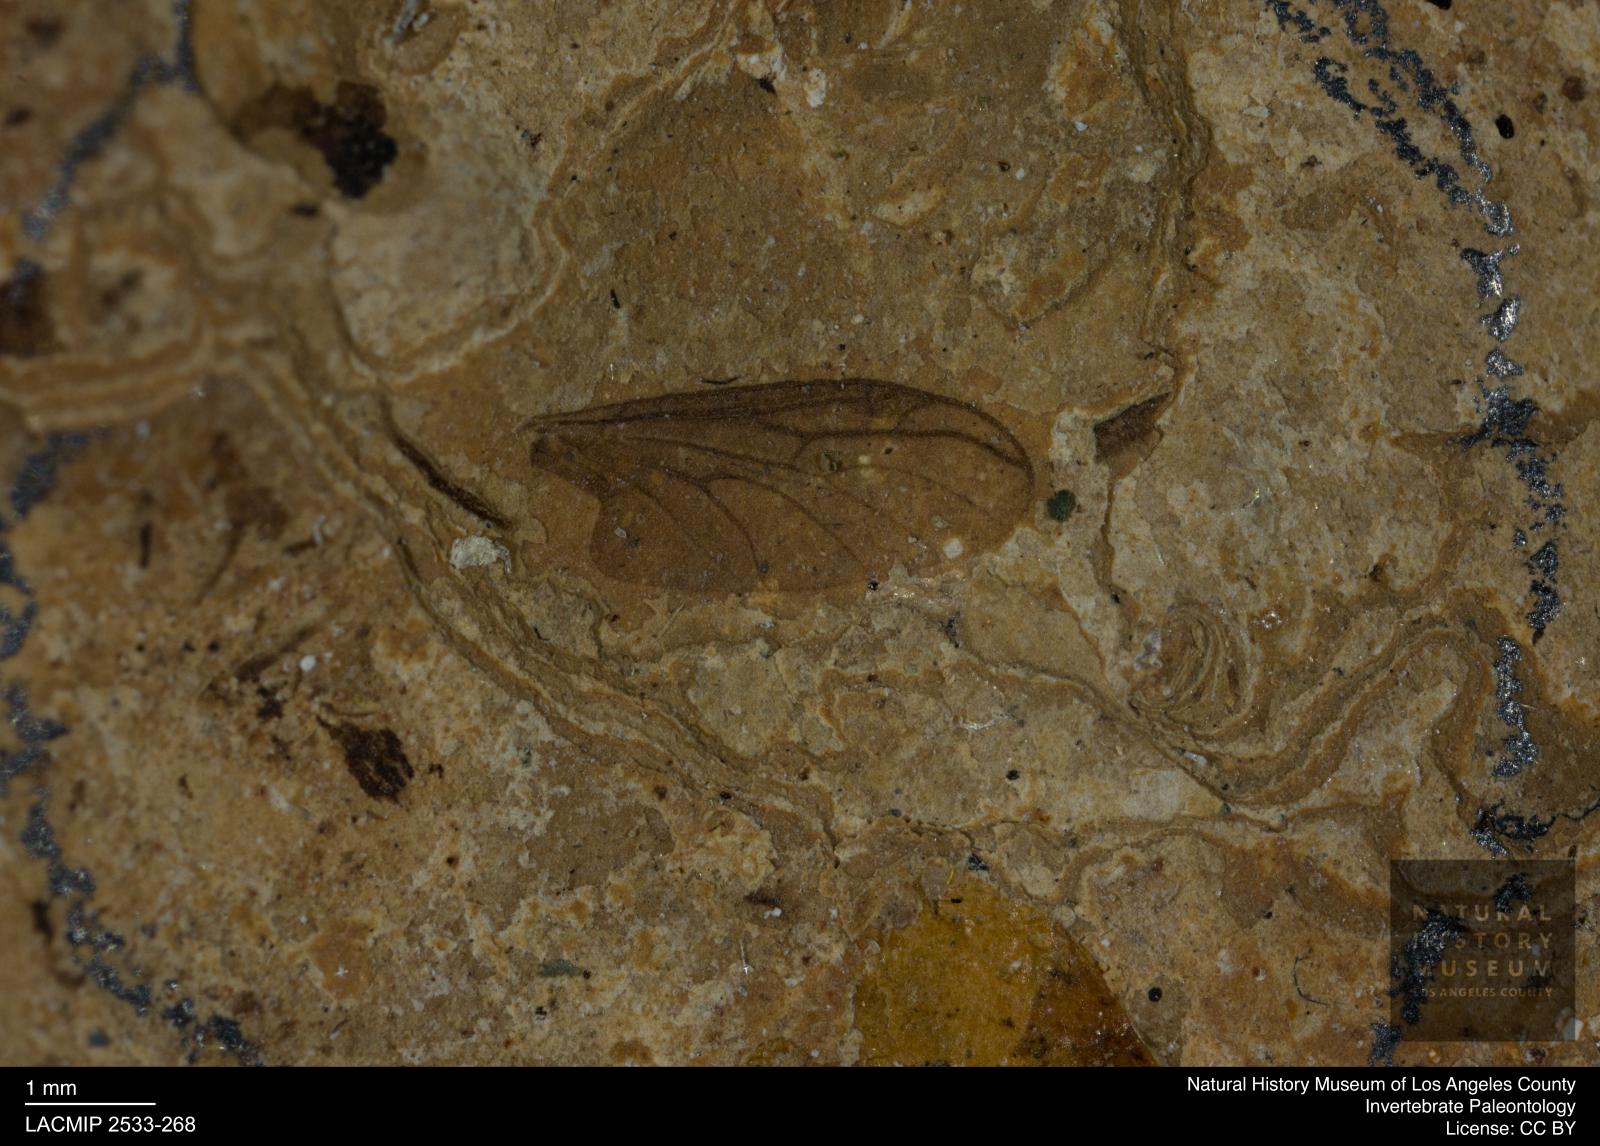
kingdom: Animalia
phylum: Arthropoda
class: Insecta
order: Diptera
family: Bibionidae
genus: Plecia
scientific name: Plecia
